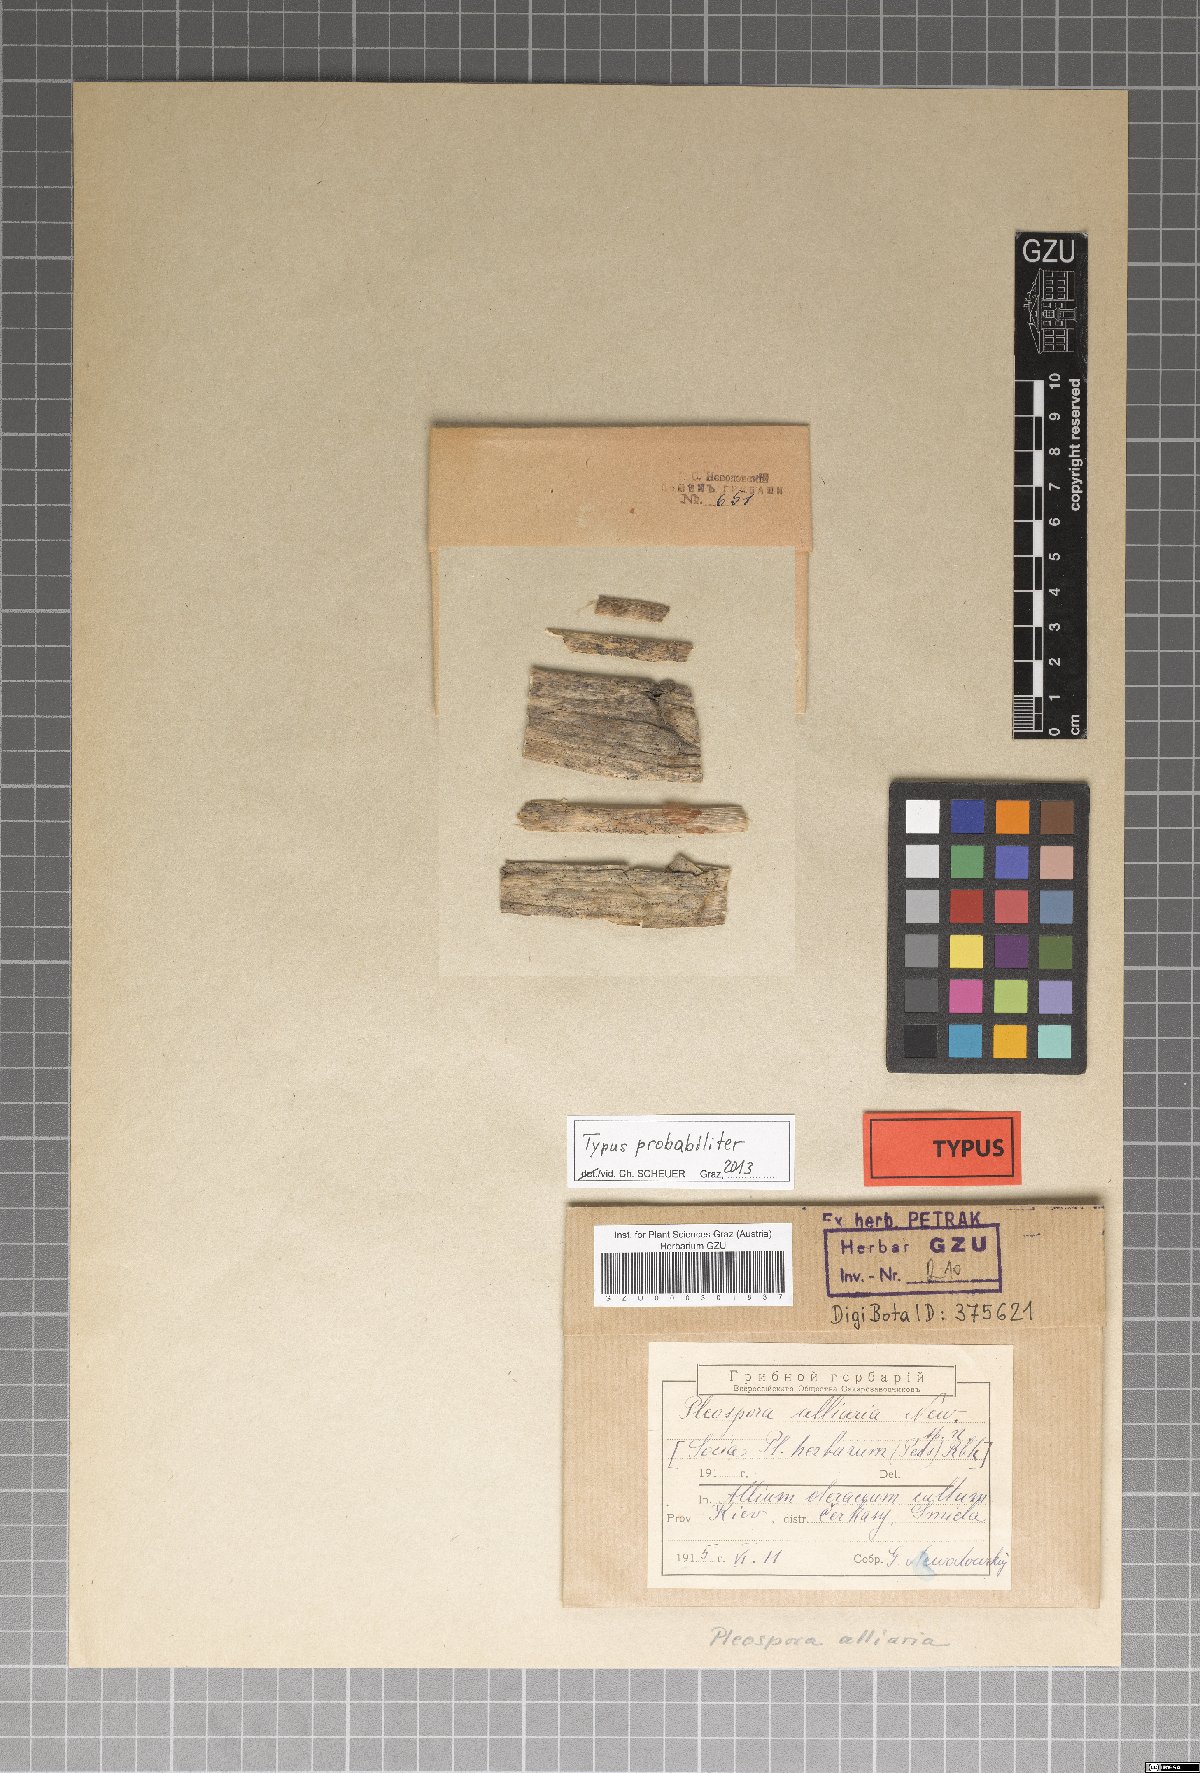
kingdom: Fungi
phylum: Ascomycota
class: Dothideomycetes
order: Pleosporales
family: Pleosporaceae
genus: Pleospora
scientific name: Pleospora
